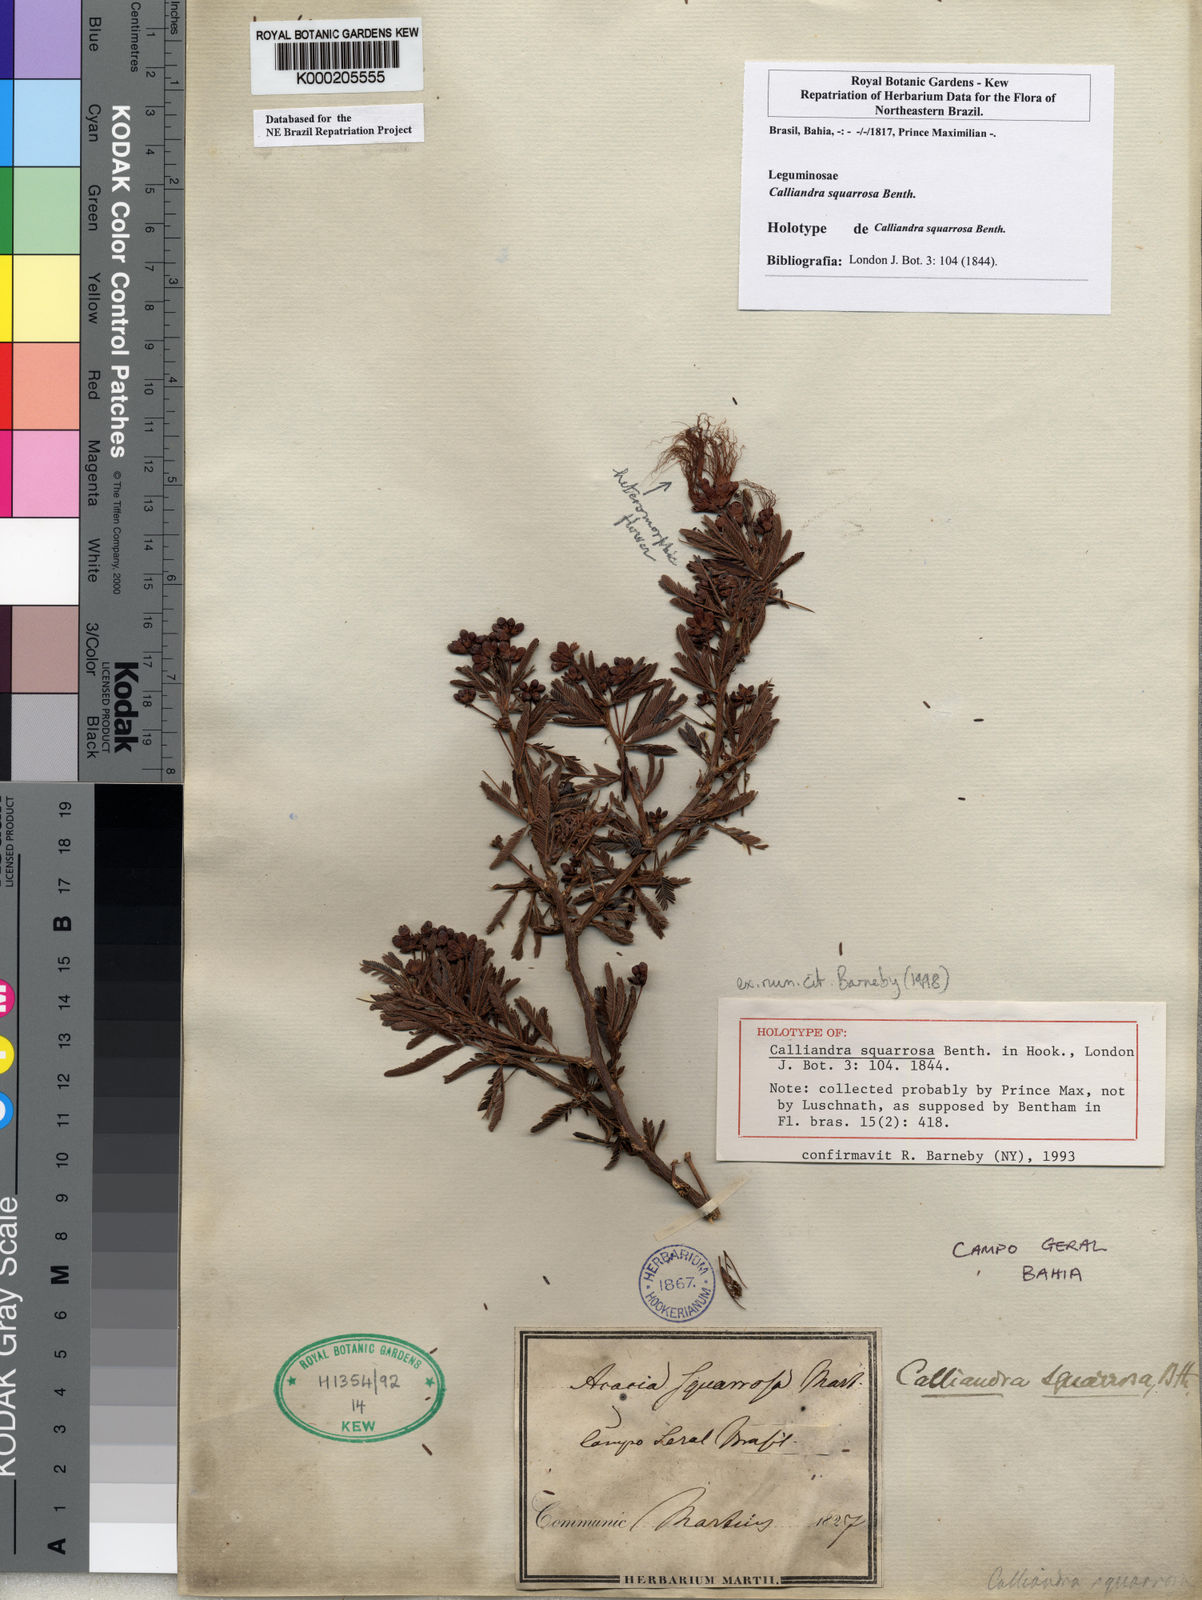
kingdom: Plantae
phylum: Tracheophyta
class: Magnoliopsida
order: Fabales
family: Fabaceae
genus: Calliandra
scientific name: Calliandra squarrosa
